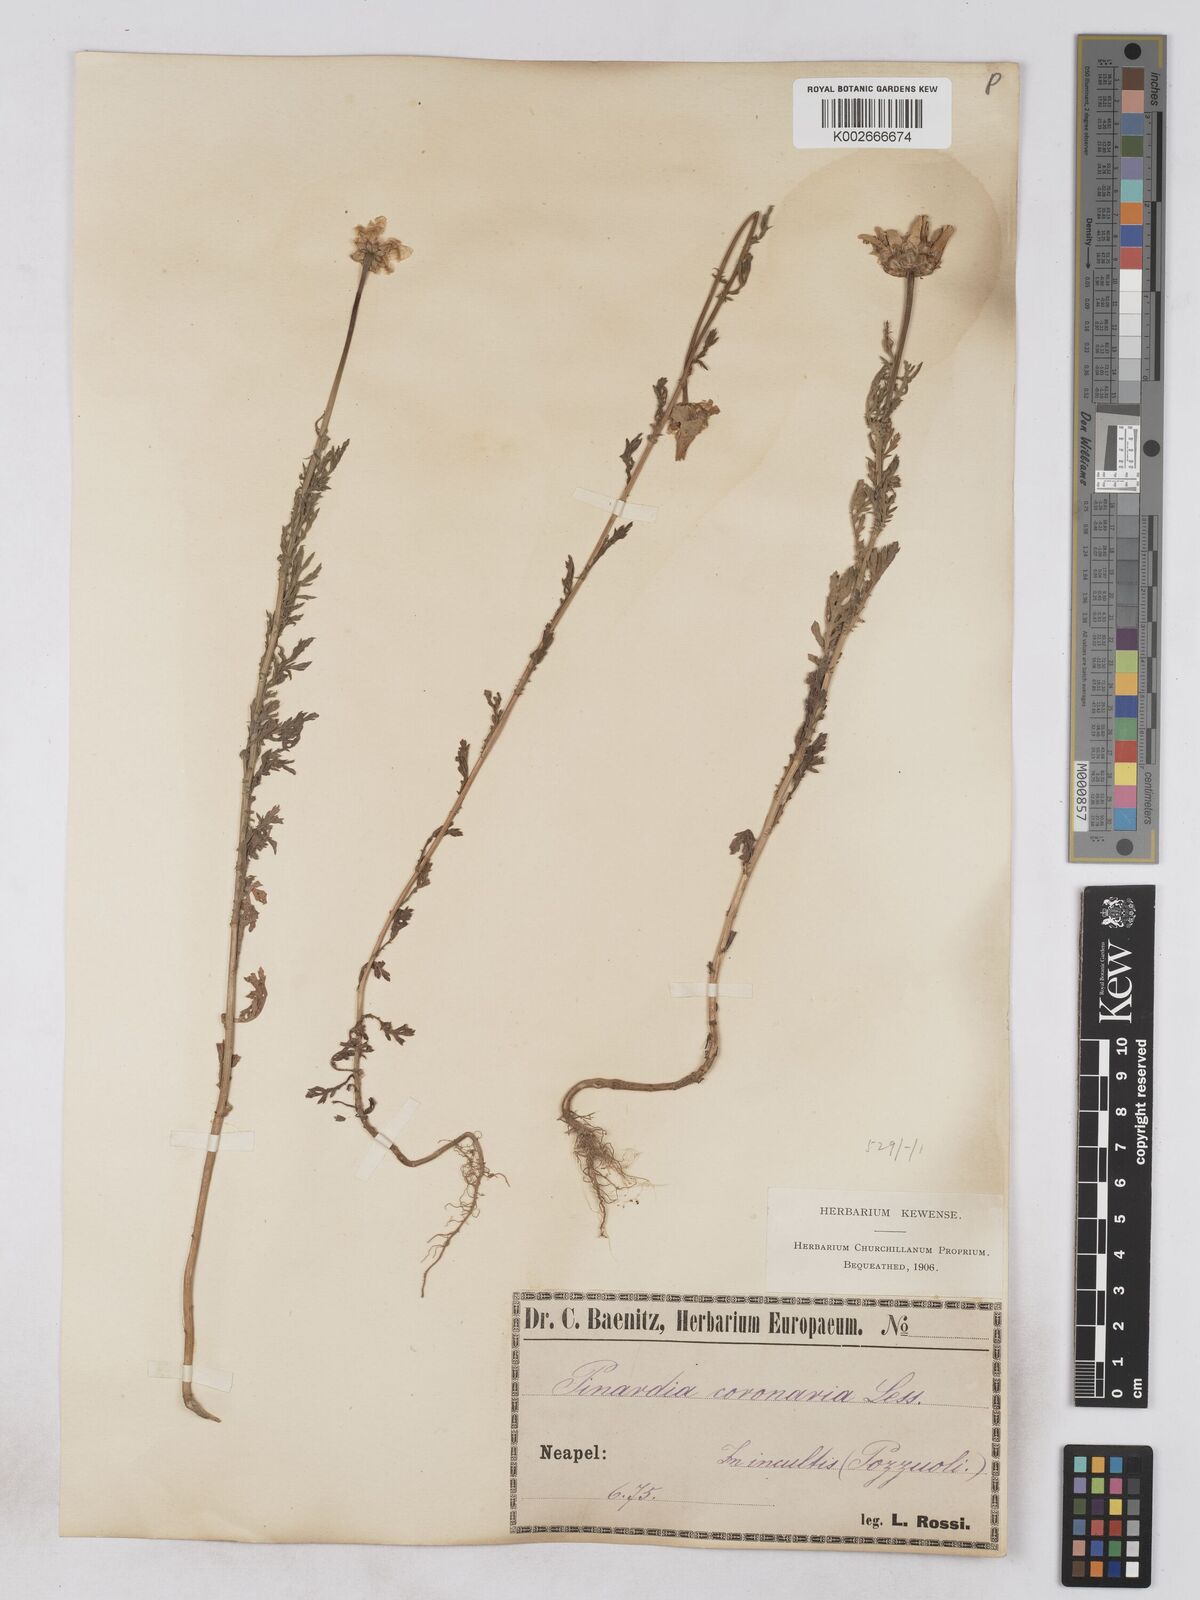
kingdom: Plantae
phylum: Tracheophyta
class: Magnoliopsida
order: Asterales
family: Asteraceae
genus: Glebionis
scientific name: Glebionis coronaria
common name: Crowndaisy
